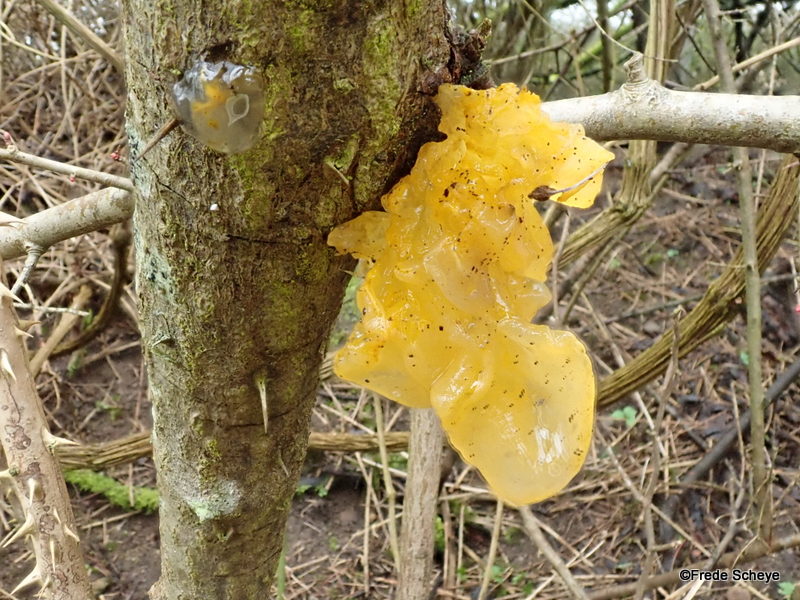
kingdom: Fungi
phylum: Basidiomycota
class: Tremellomycetes
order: Tremellales
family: Tremellaceae
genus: Tremella
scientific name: Tremella mesenterica
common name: gul bævresvamp
